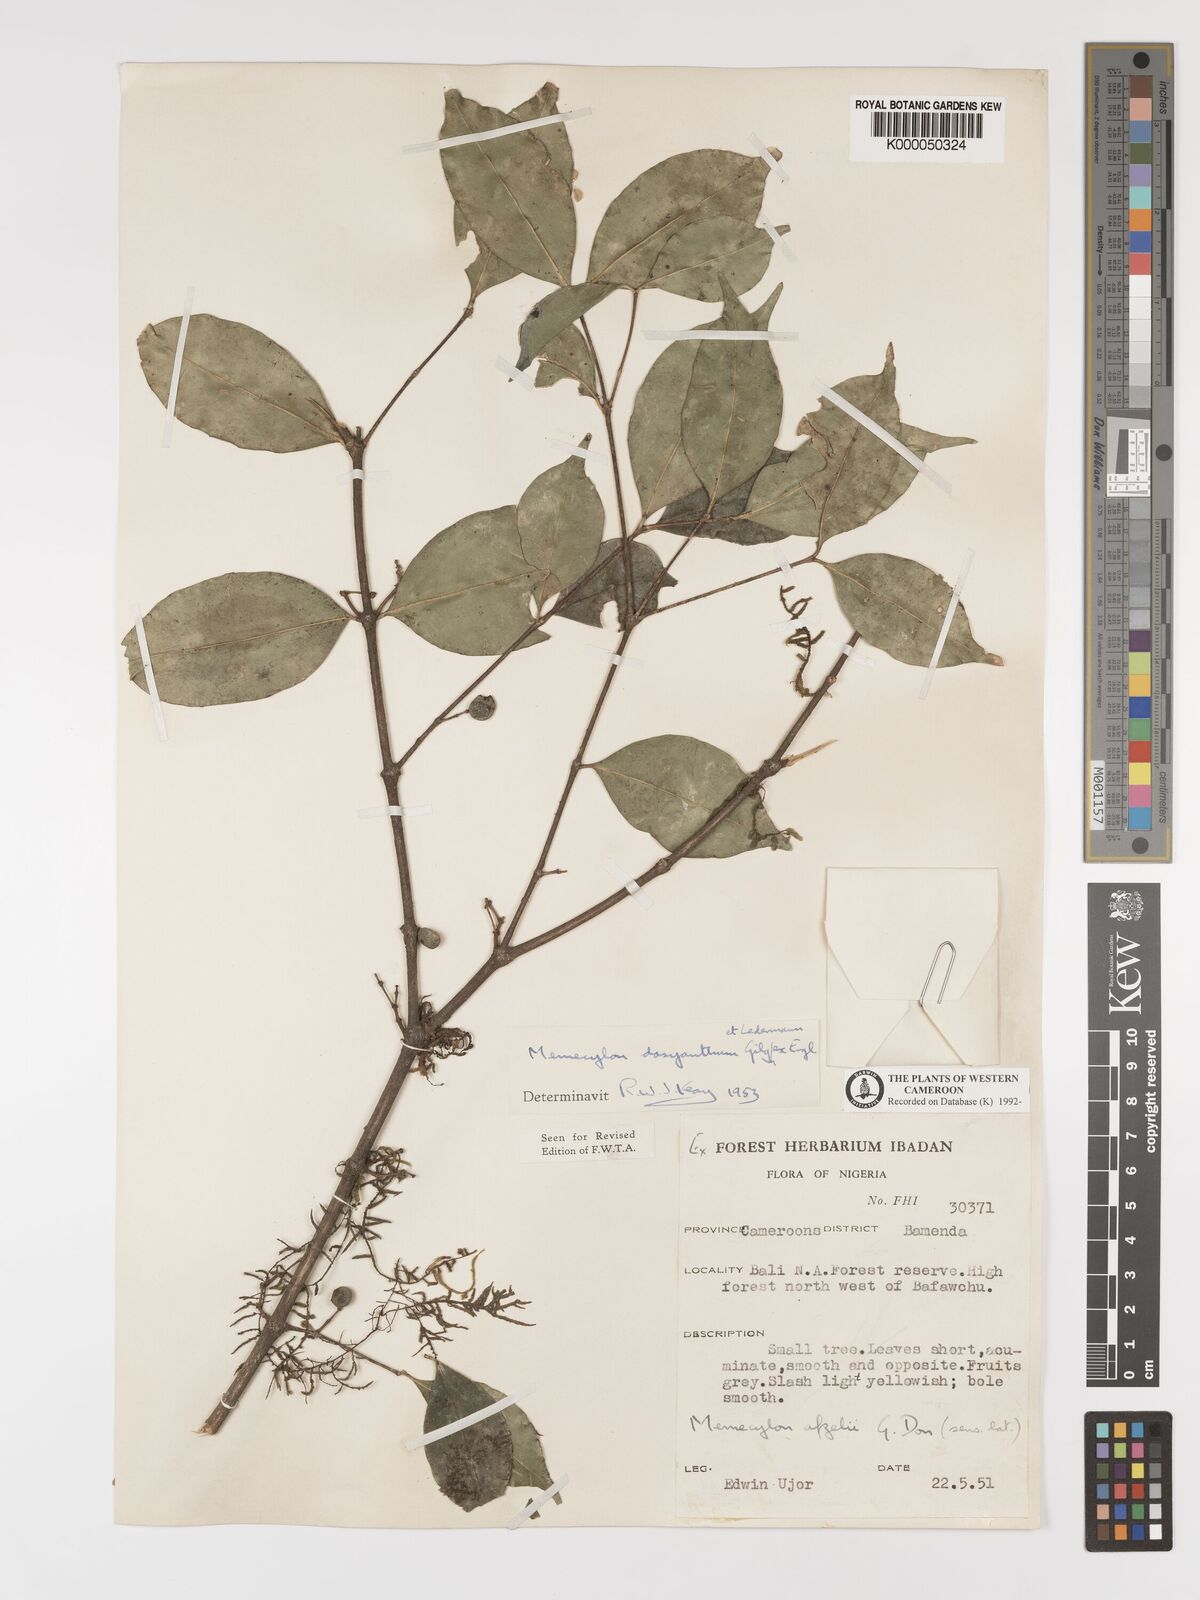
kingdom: Plantae
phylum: Tracheophyta
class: Magnoliopsida
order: Myrtales
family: Melastomataceae
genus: Memecylon
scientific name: Memecylon dasyanthum
